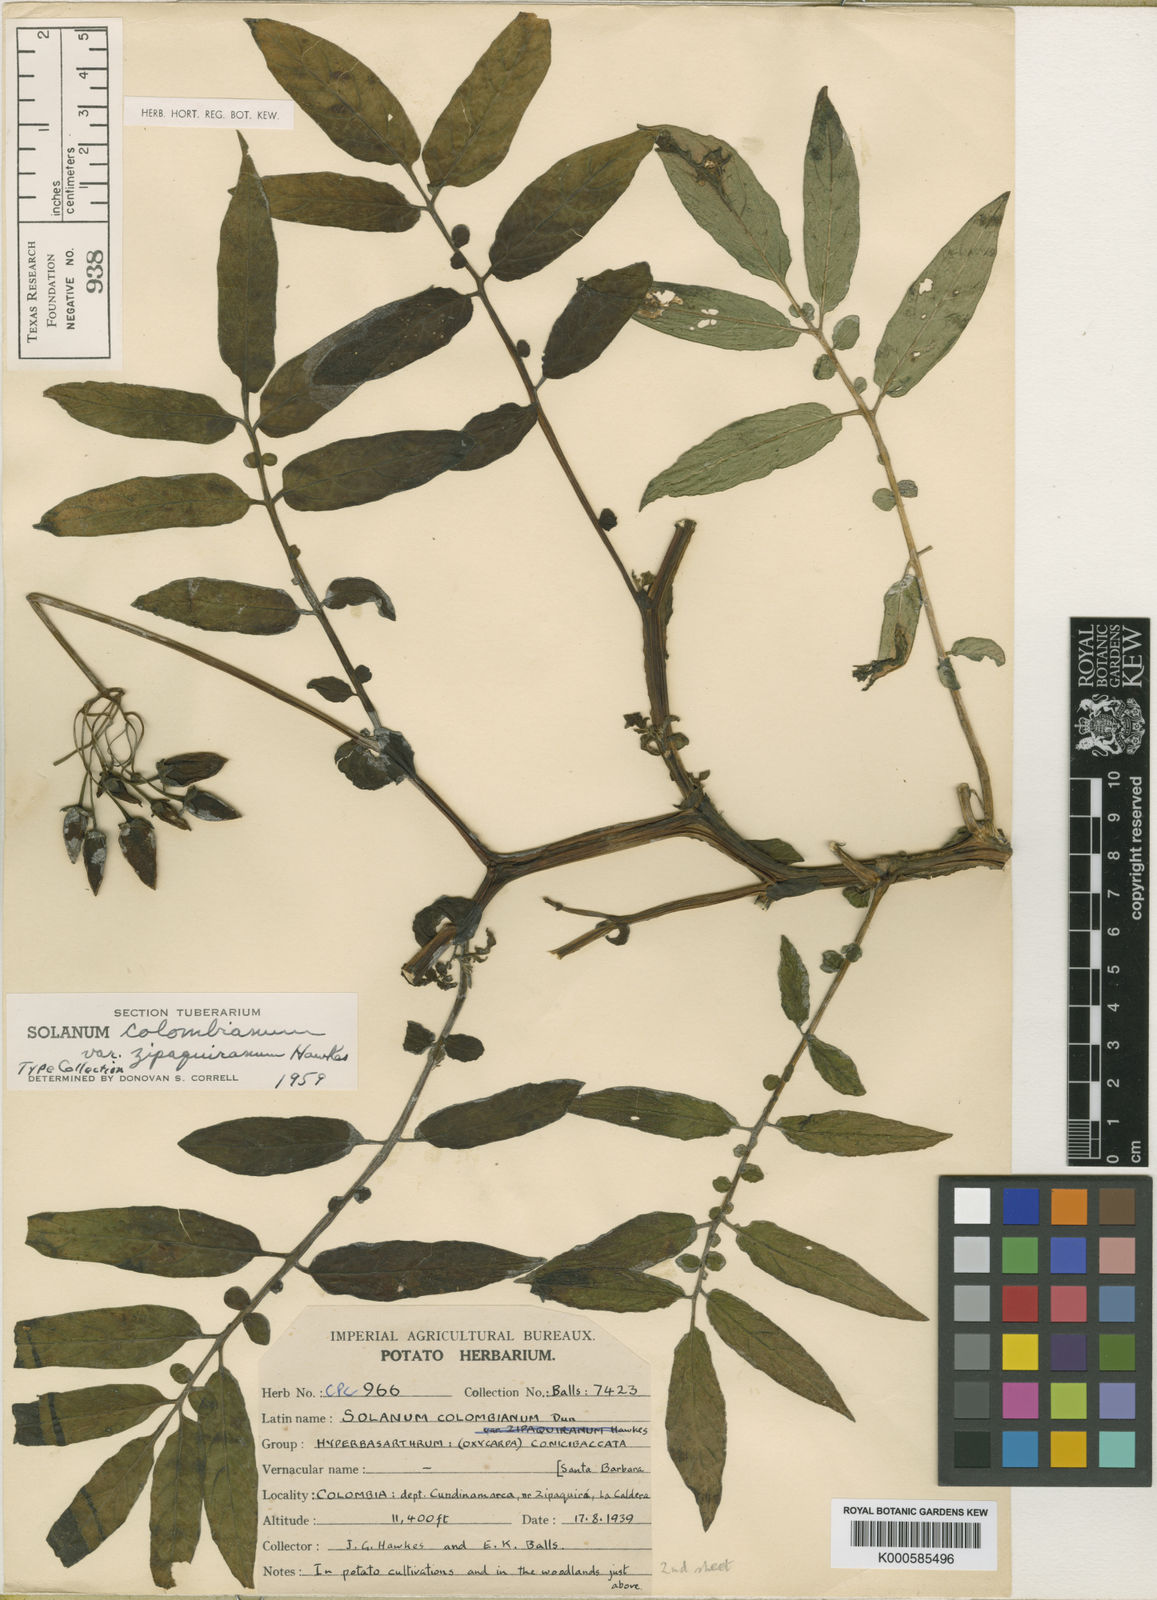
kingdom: Plantae
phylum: Tracheophyta
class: Magnoliopsida
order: Solanales
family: Solanaceae
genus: Solanum
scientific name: Solanum colombianum
